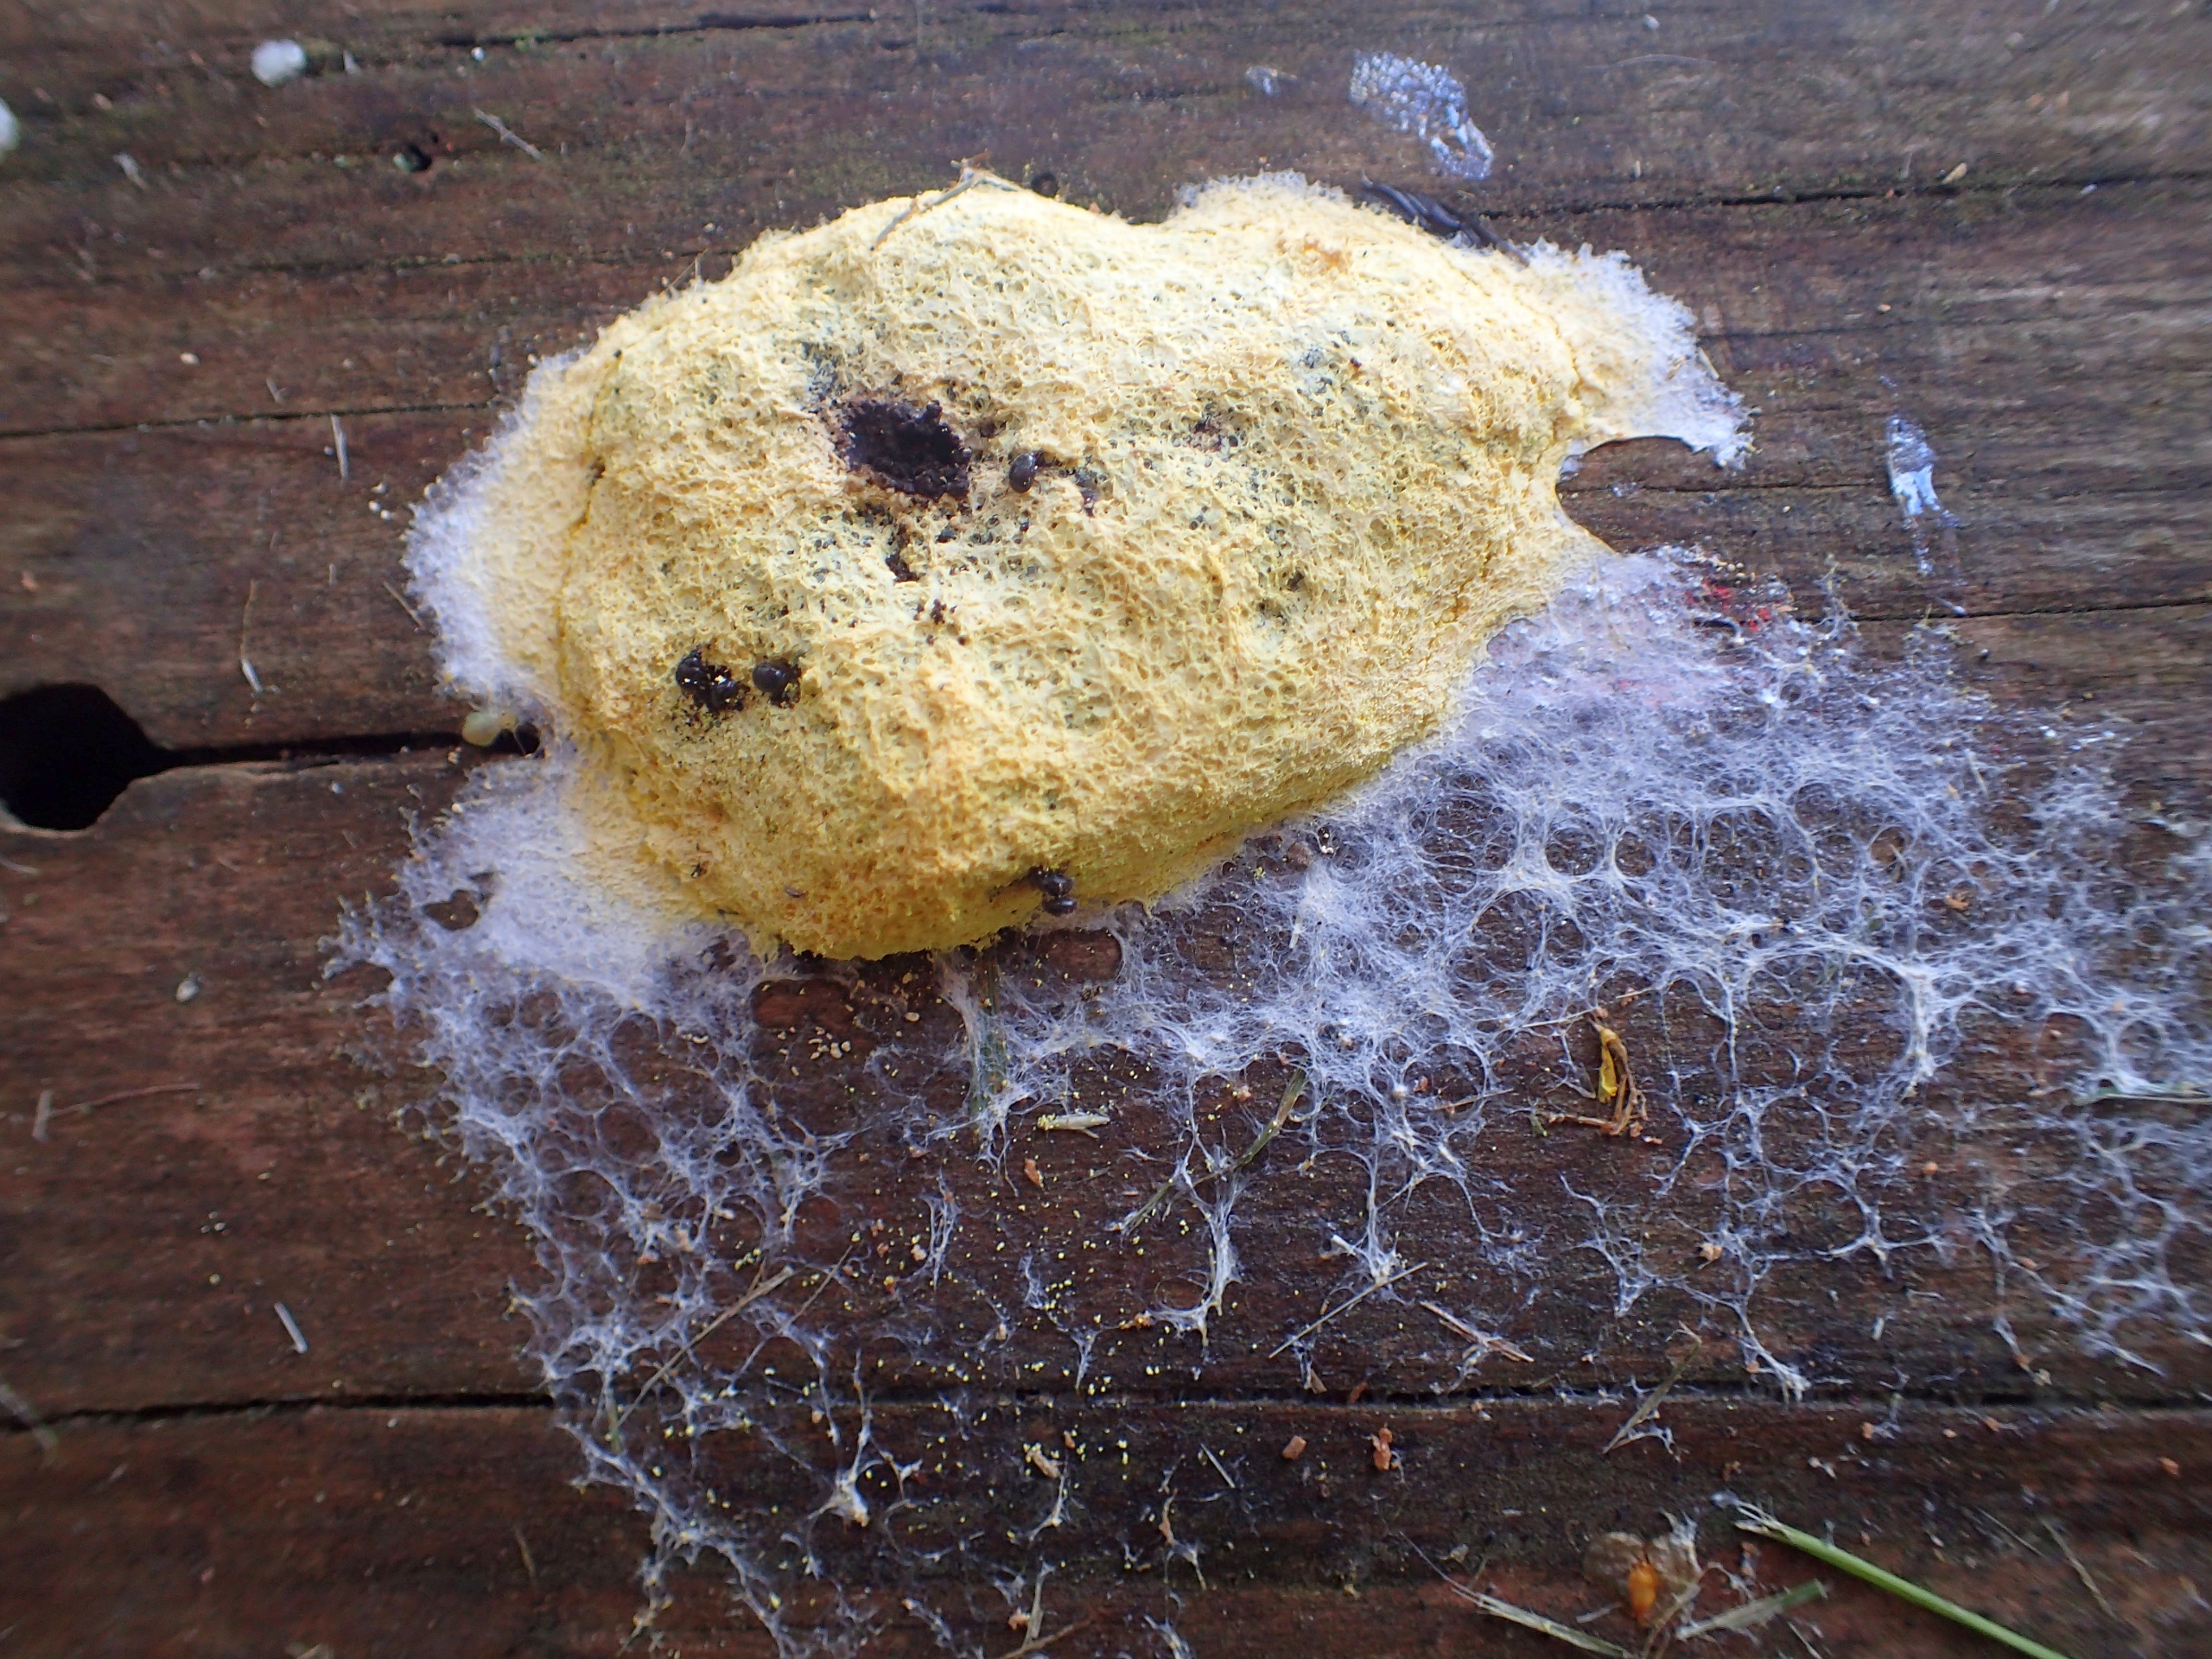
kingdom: Protozoa
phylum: Mycetozoa
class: Myxomycetes
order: Physarales
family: Physaraceae
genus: Fuligo
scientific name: Fuligo septica
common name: Gul troldsmør
